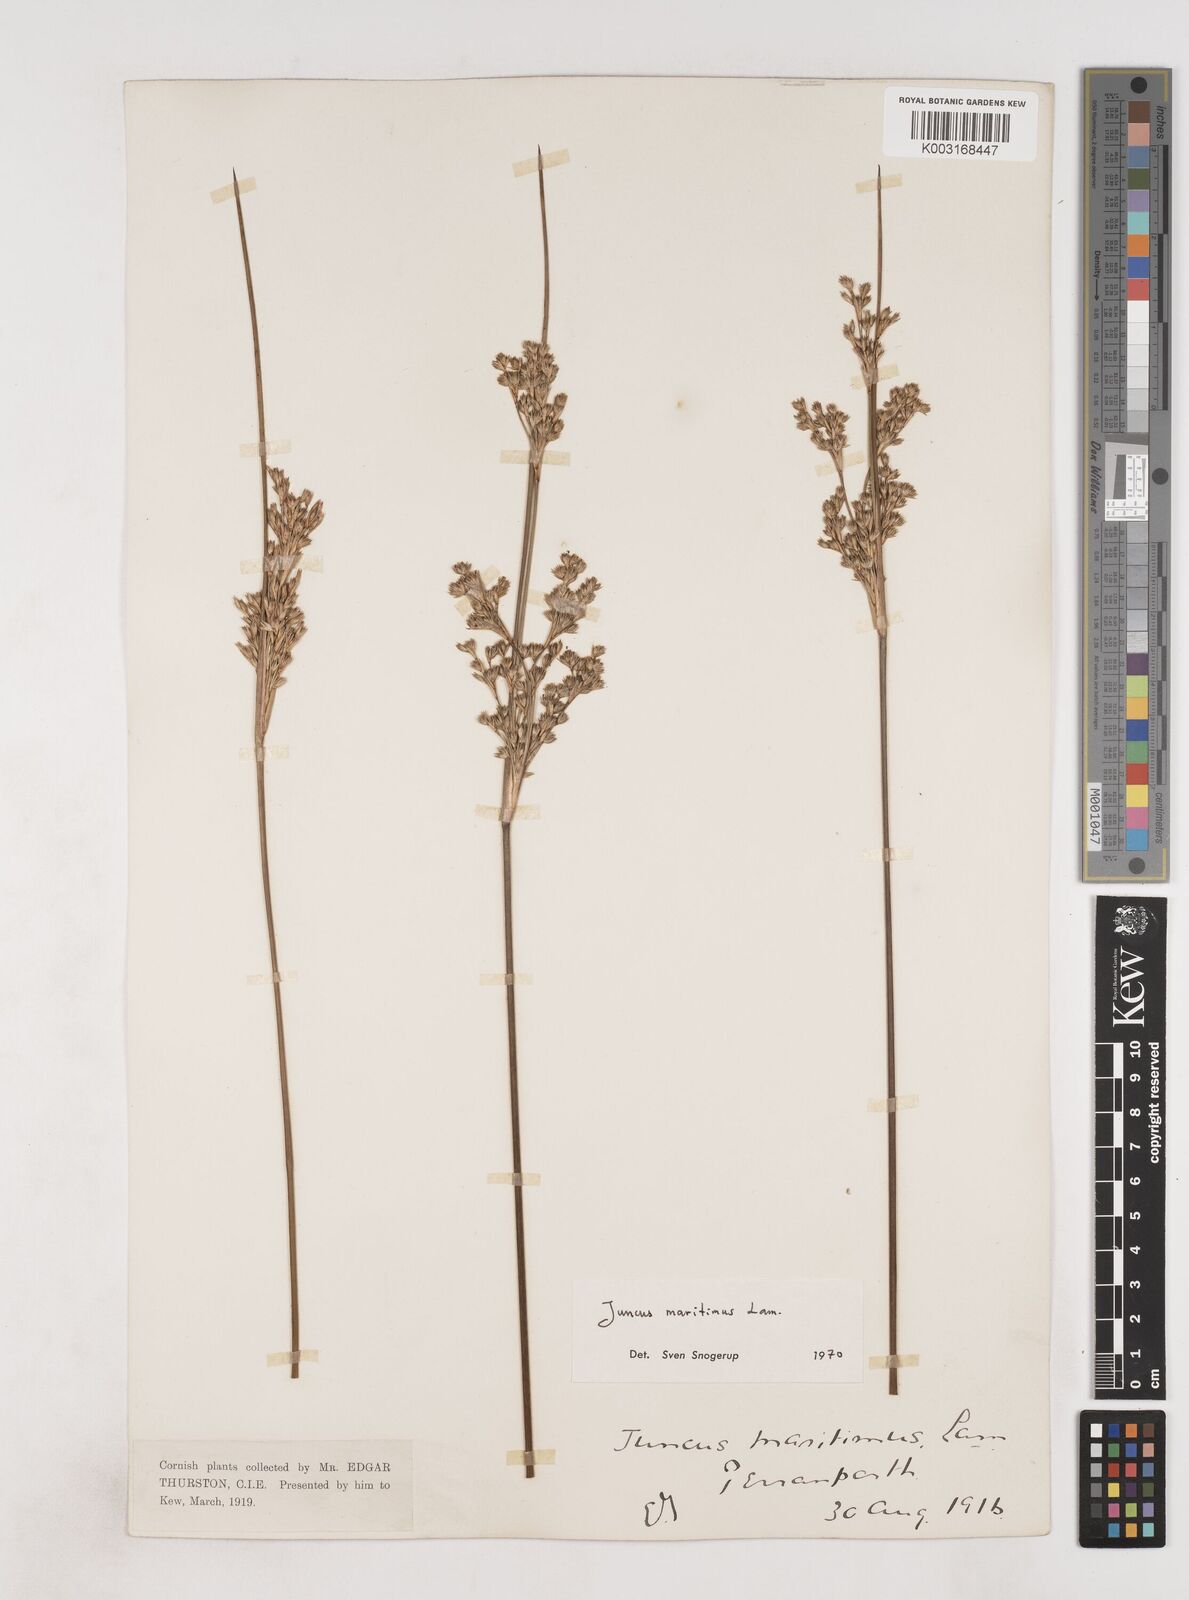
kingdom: Plantae
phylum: Tracheophyta
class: Liliopsida
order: Poales
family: Juncaceae
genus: Juncus
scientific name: Juncus maritimus
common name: Sea rush
